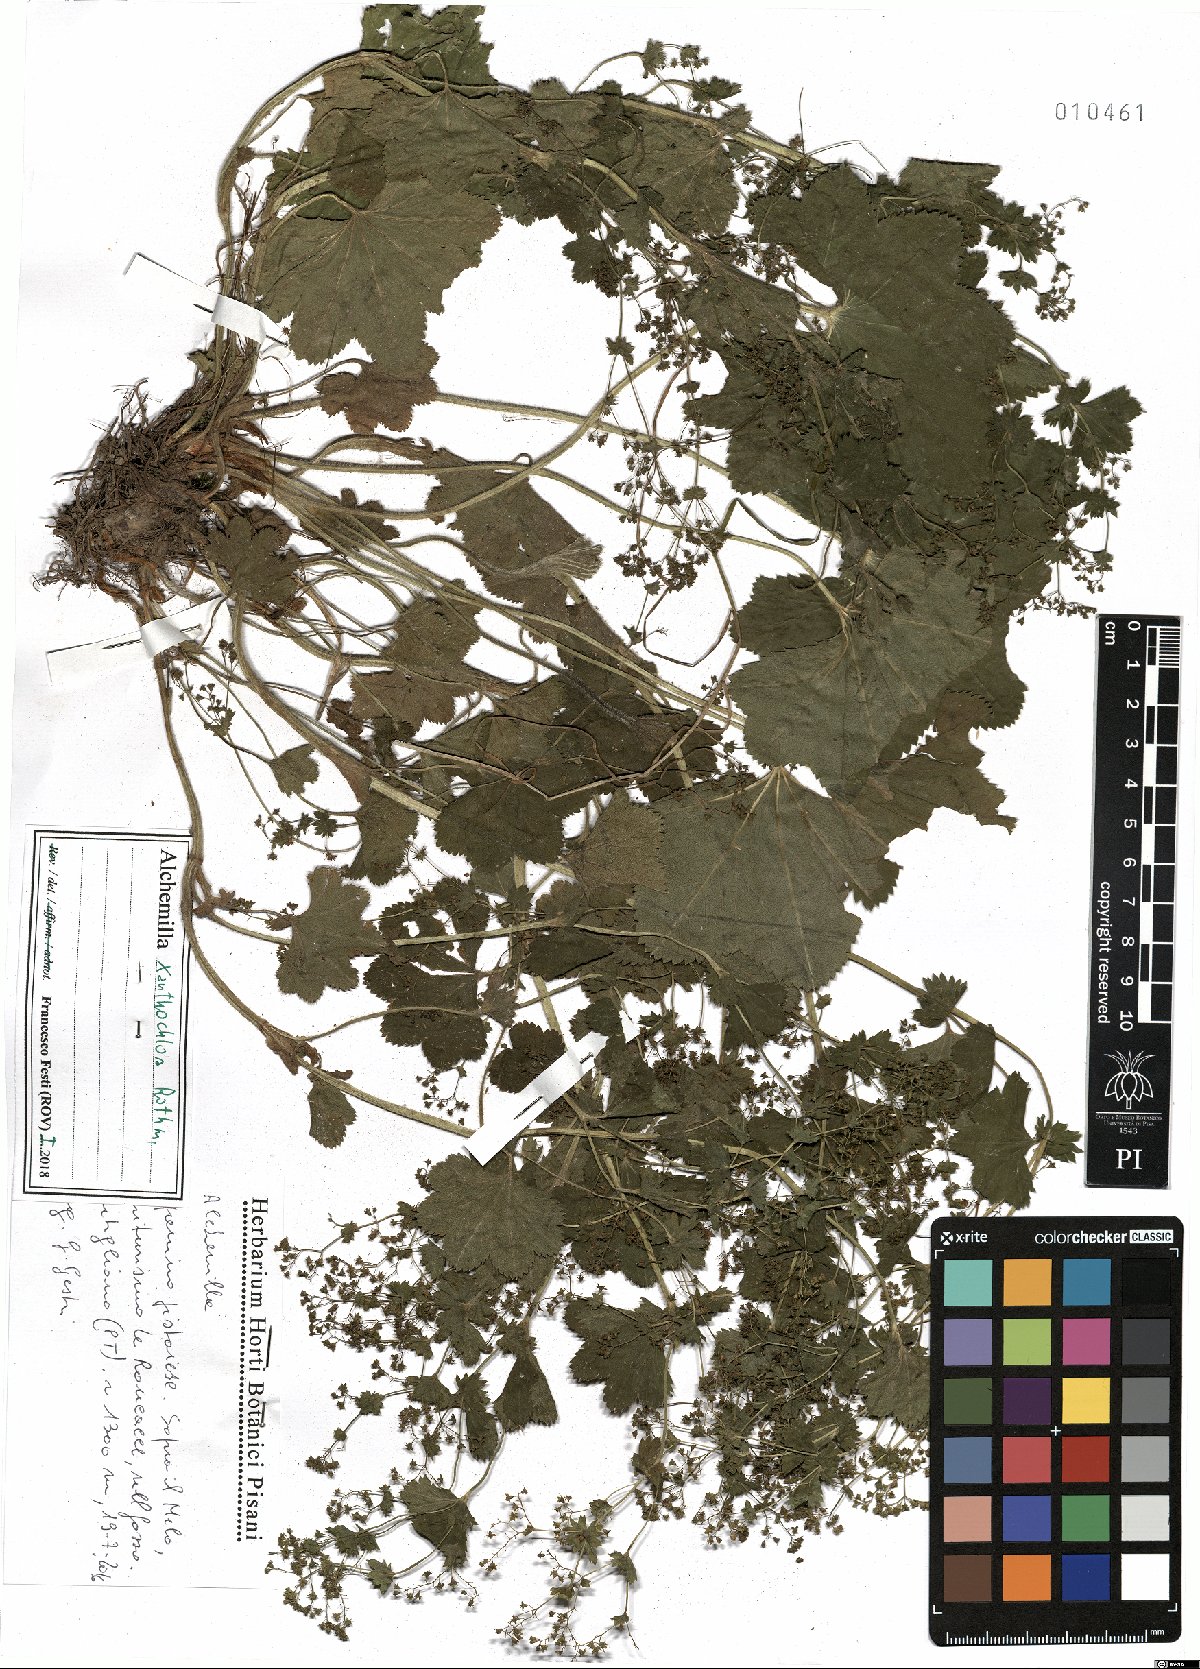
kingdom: Plantae
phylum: Tracheophyta
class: Magnoliopsida
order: Rosales
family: Rosaceae
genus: Alchemilla
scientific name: Alchemilla xanthochlora
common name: Intermediate lady's-mantle
